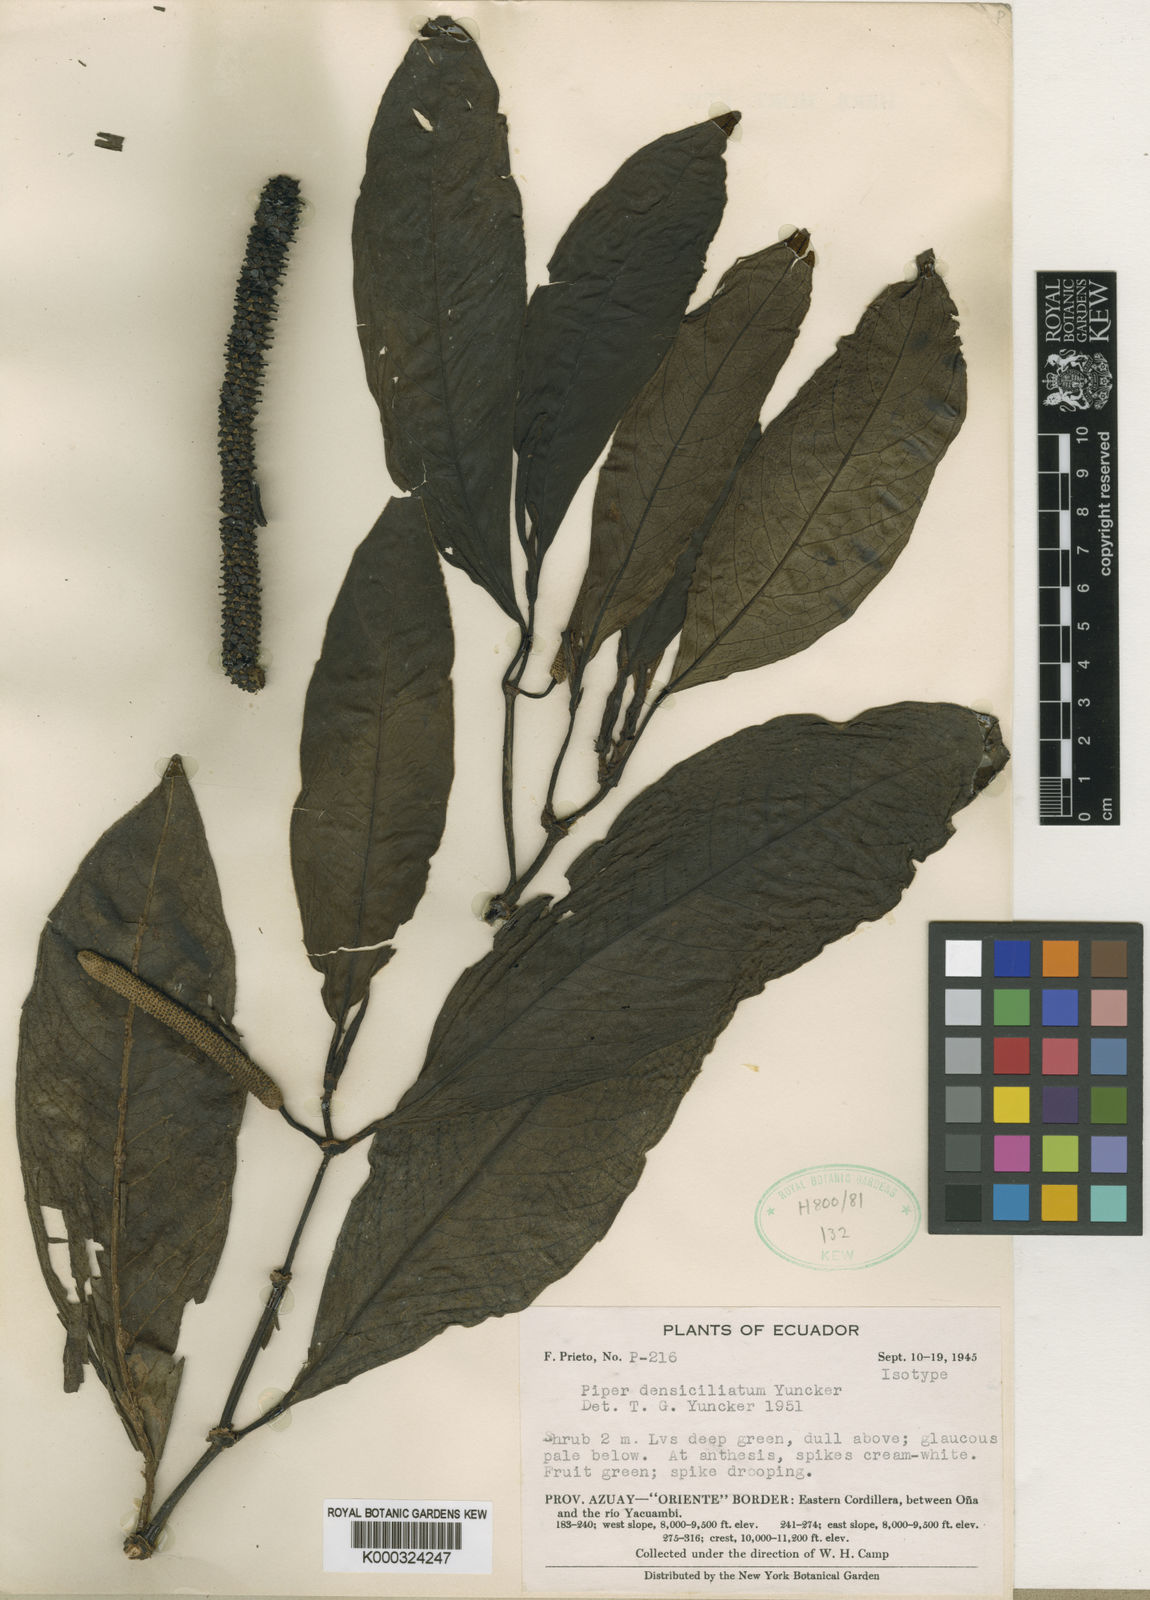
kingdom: Plantae
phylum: Tracheophyta
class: Magnoliopsida
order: Piperales
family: Piperaceae
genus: Piper
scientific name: Piper densiciliatum
